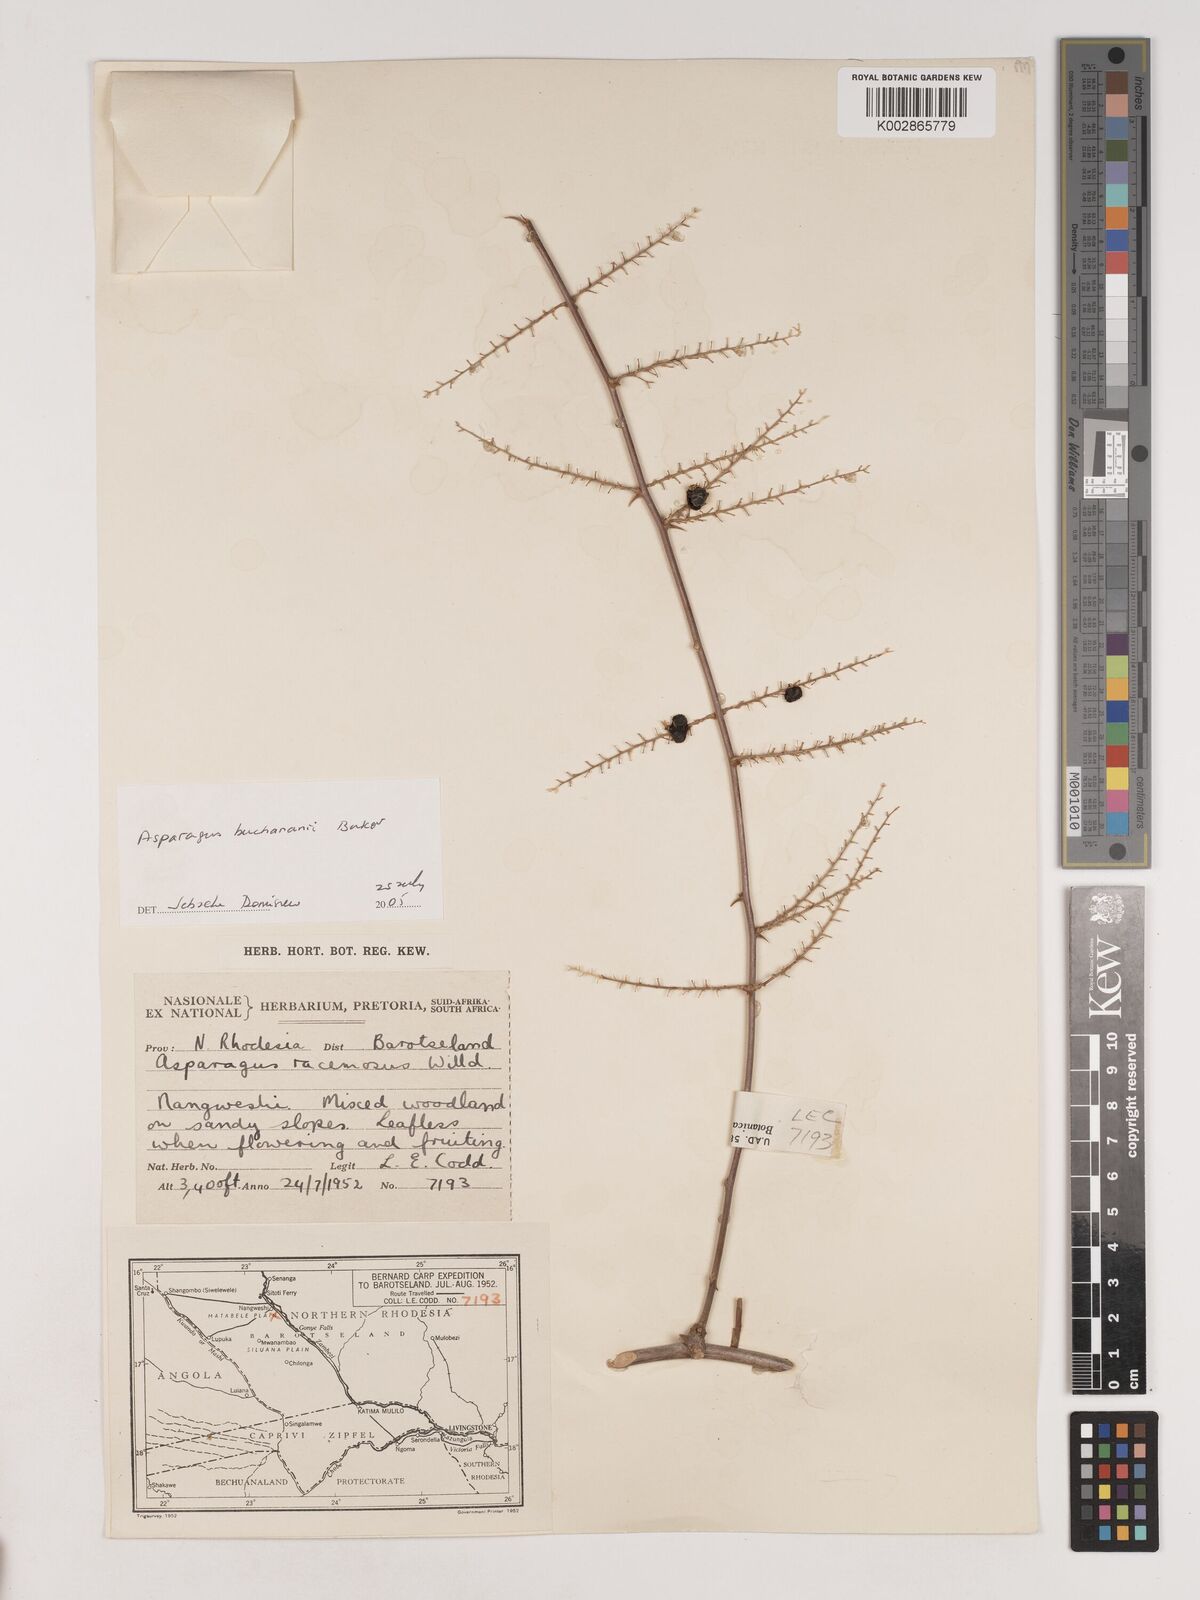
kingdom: Plantae
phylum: Tracheophyta
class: Liliopsida
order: Asparagales
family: Asparagaceae
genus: Asparagus
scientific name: Asparagus buchananii
